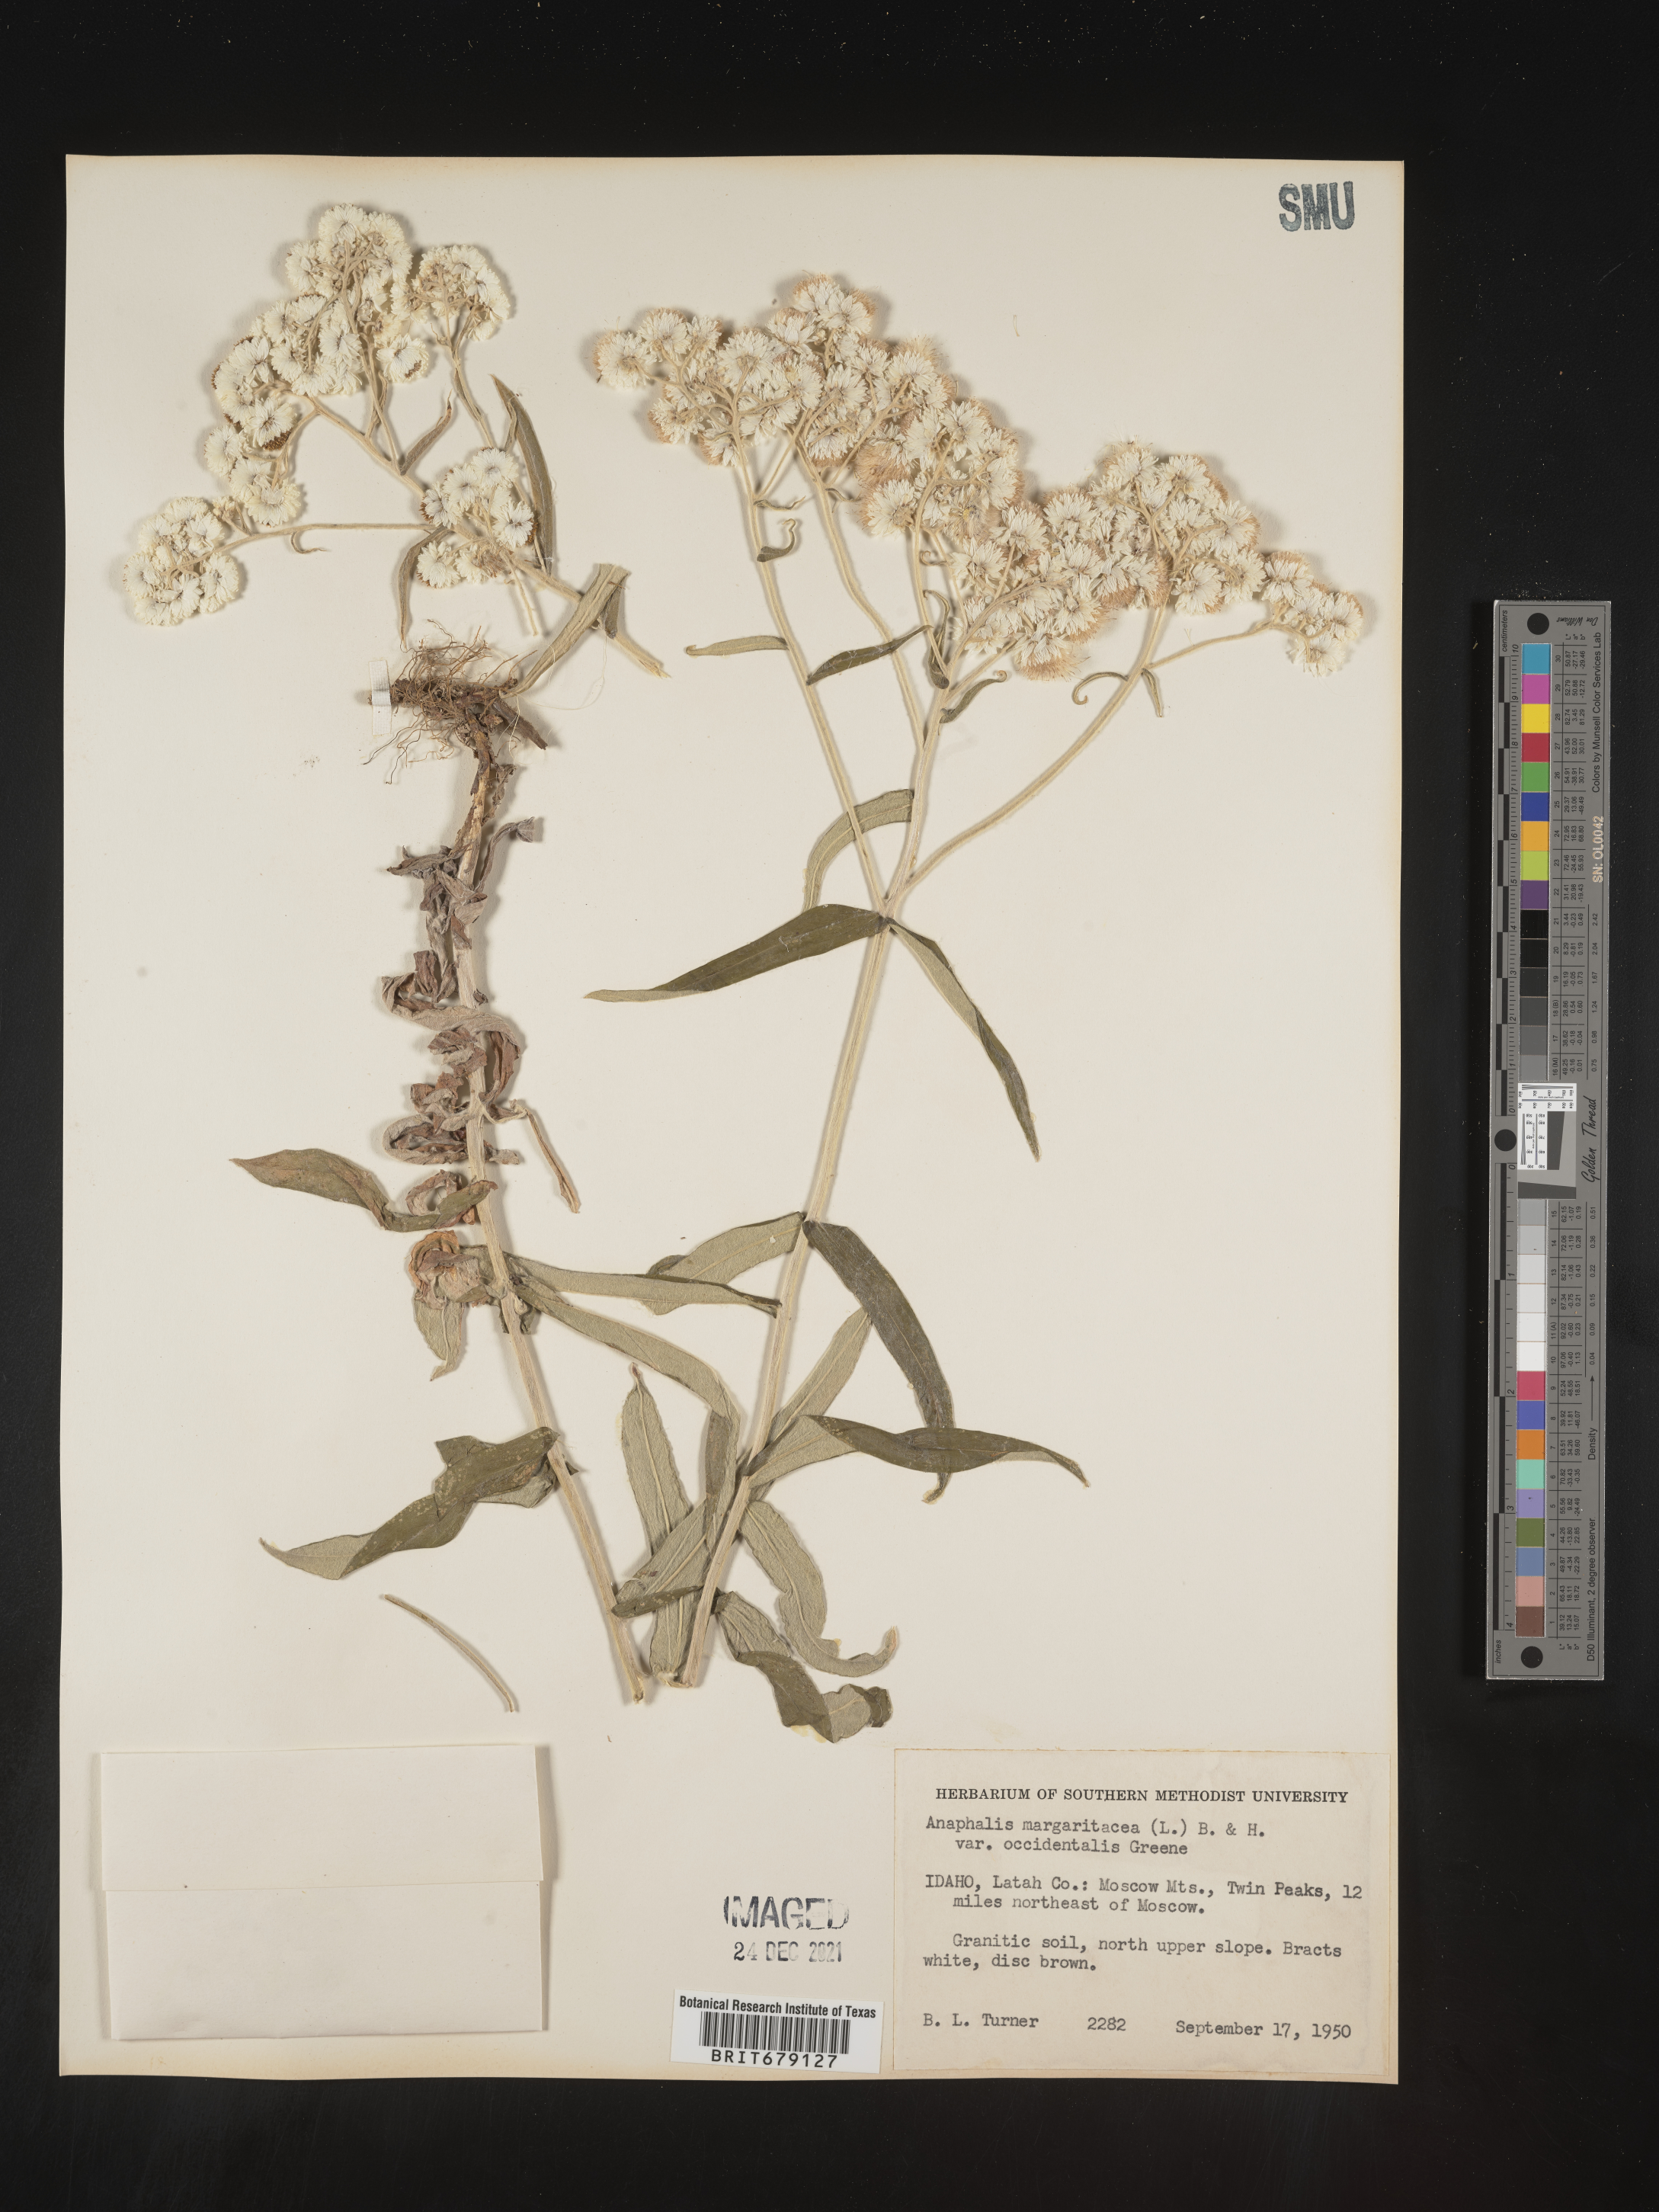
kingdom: Plantae
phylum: Tracheophyta
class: Magnoliopsida
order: Asterales
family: Asteraceae
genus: Anaphalis
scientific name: Anaphalis margaritacea
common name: Pearly everlasting
